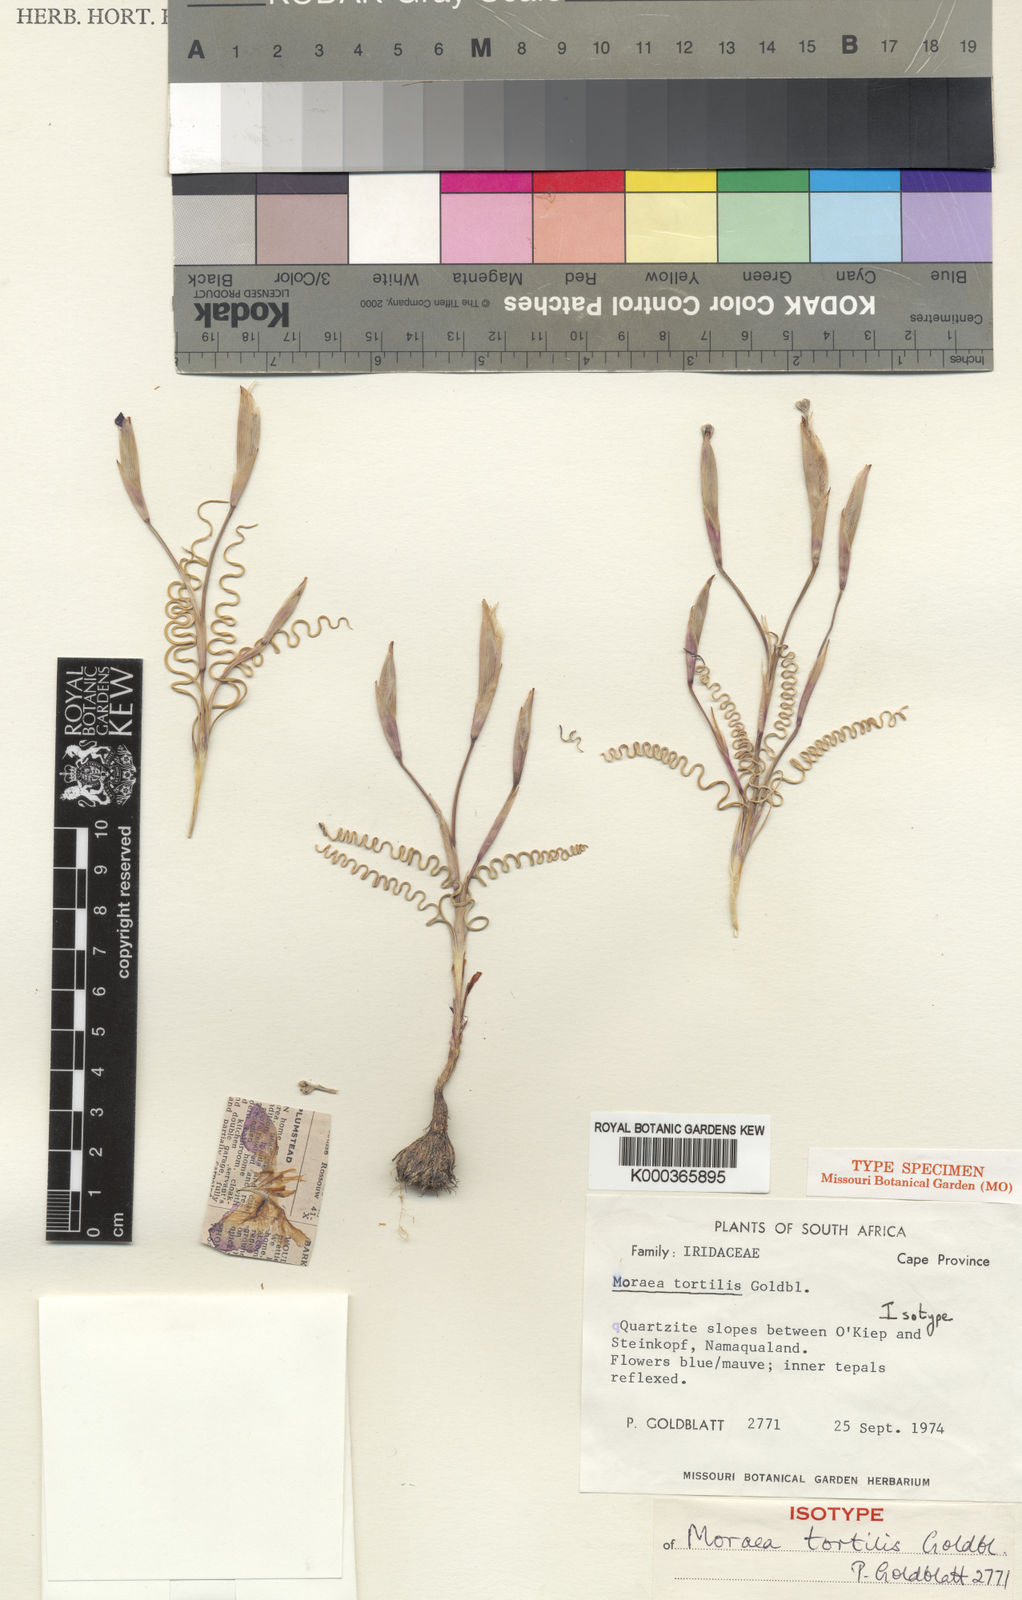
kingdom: Plantae
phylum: Tracheophyta
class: Liliopsida
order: Asparagales
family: Iridaceae
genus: Moraea
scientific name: Moraea tortilis
